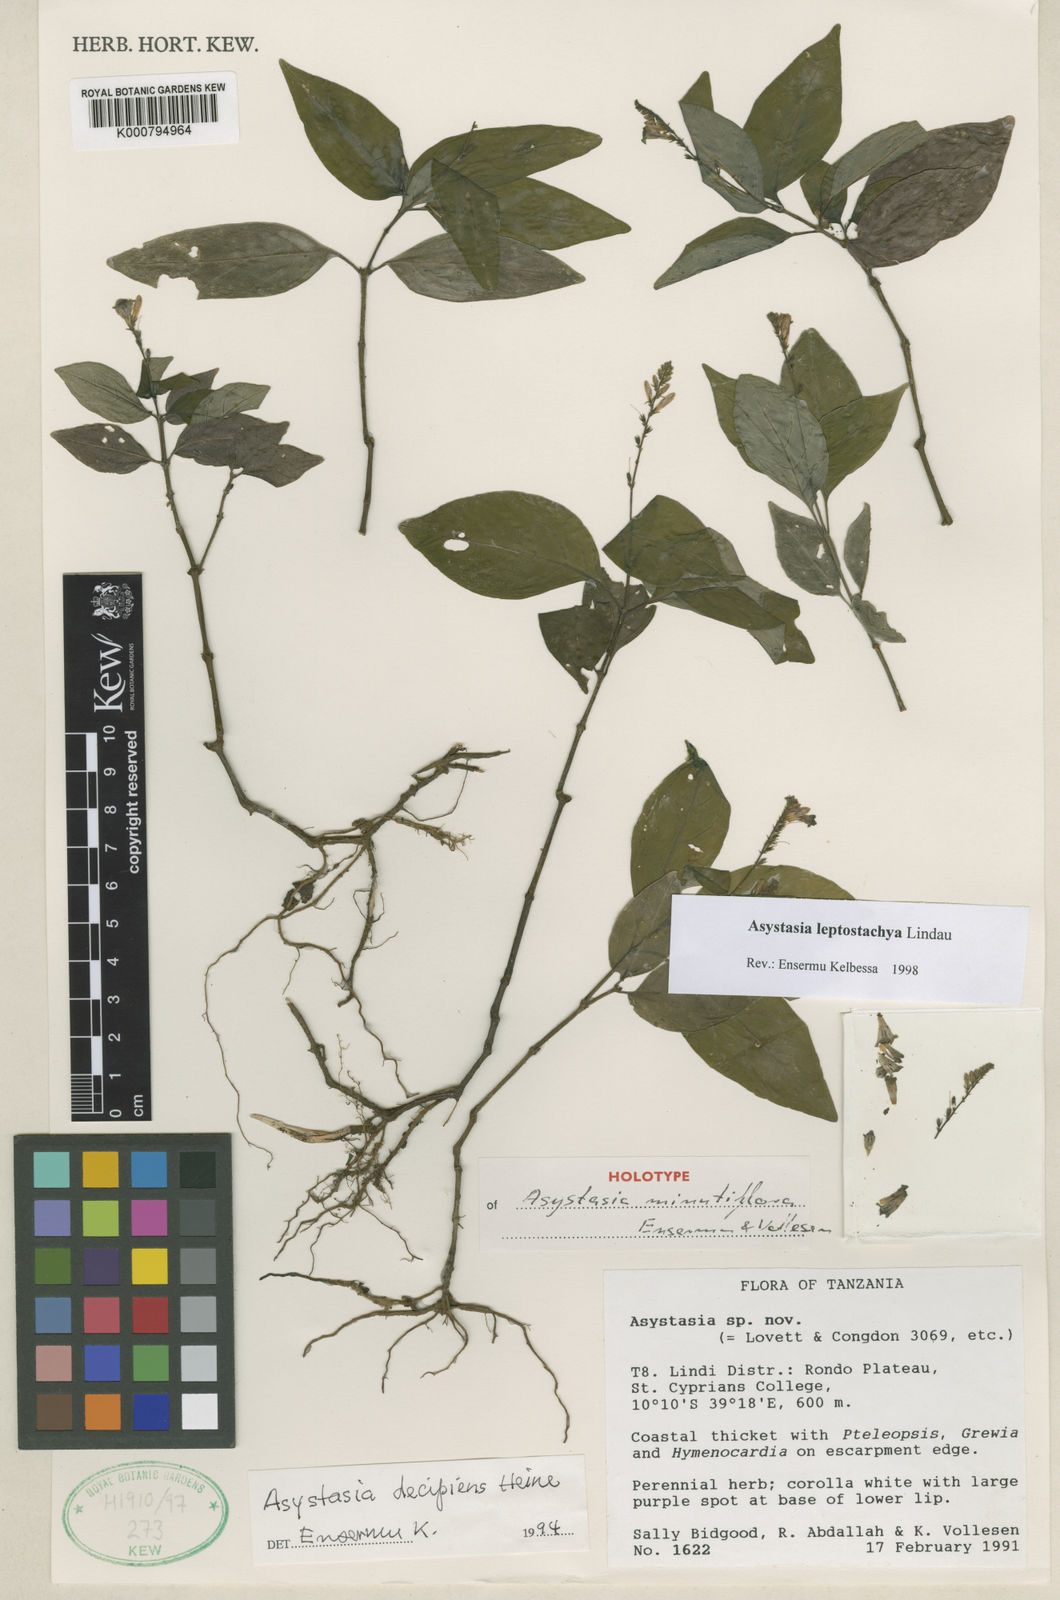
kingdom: Plantae
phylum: Tracheophyta
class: Magnoliopsida
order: Lamiales
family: Acanthaceae
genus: Asystasia
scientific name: Asystasia minutiflora
